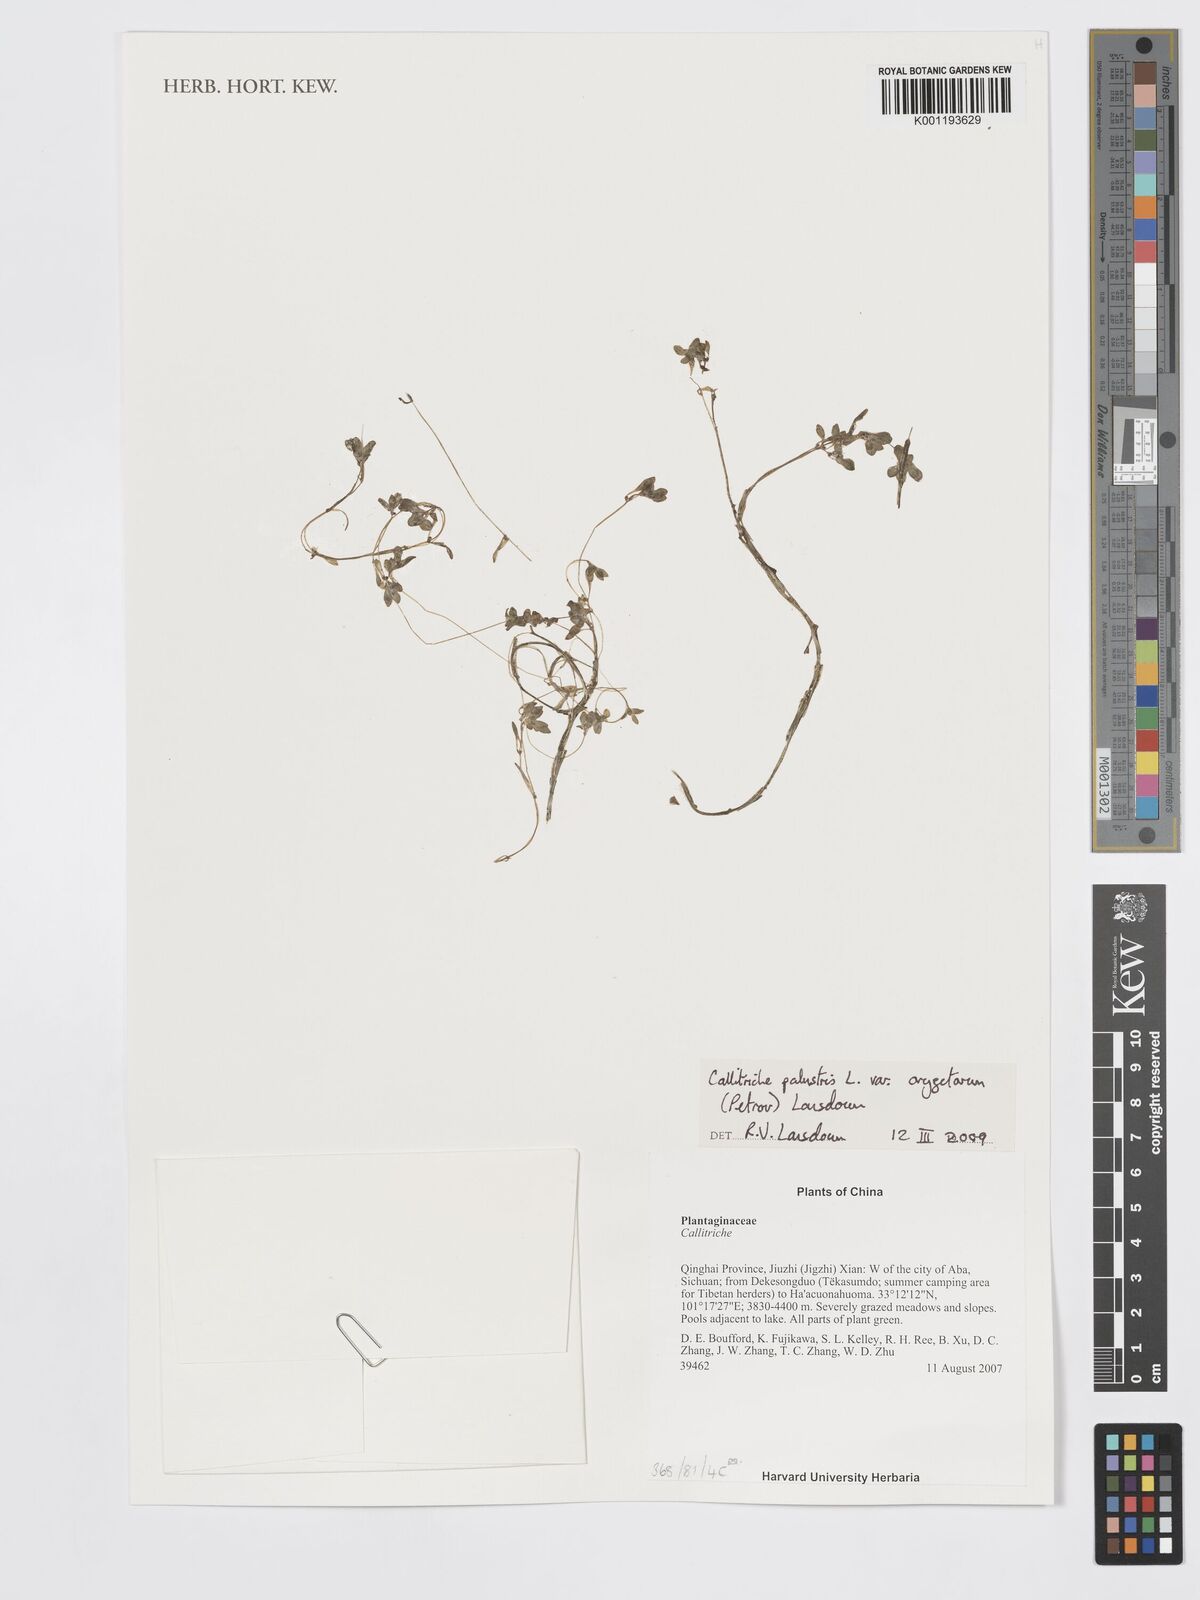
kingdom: Plantae
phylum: Tracheophyta
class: Magnoliopsida
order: Lamiales
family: Plantaginaceae
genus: Callitriche
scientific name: Callitriche palustris
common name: Spring water-starwort
